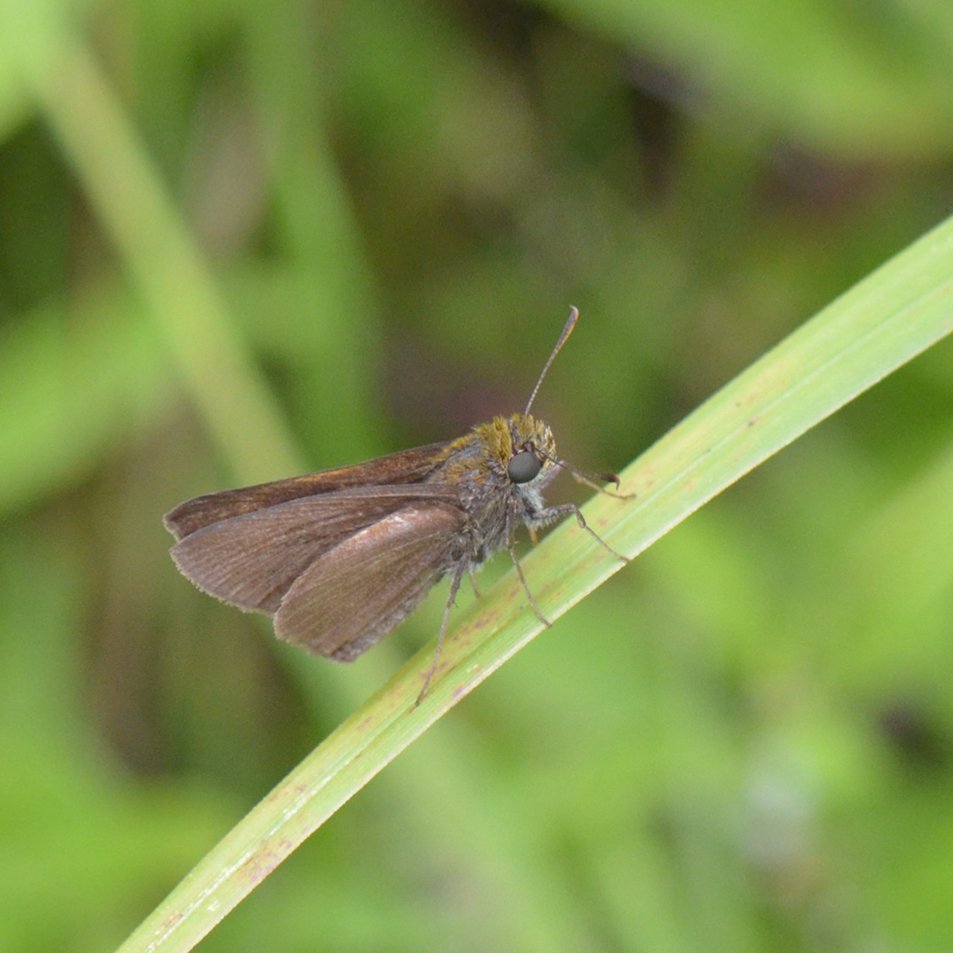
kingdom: Animalia
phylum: Arthropoda
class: Insecta
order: Lepidoptera
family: Hesperiidae
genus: Euphyes
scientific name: Euphyes vestris
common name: Dun Skipper
